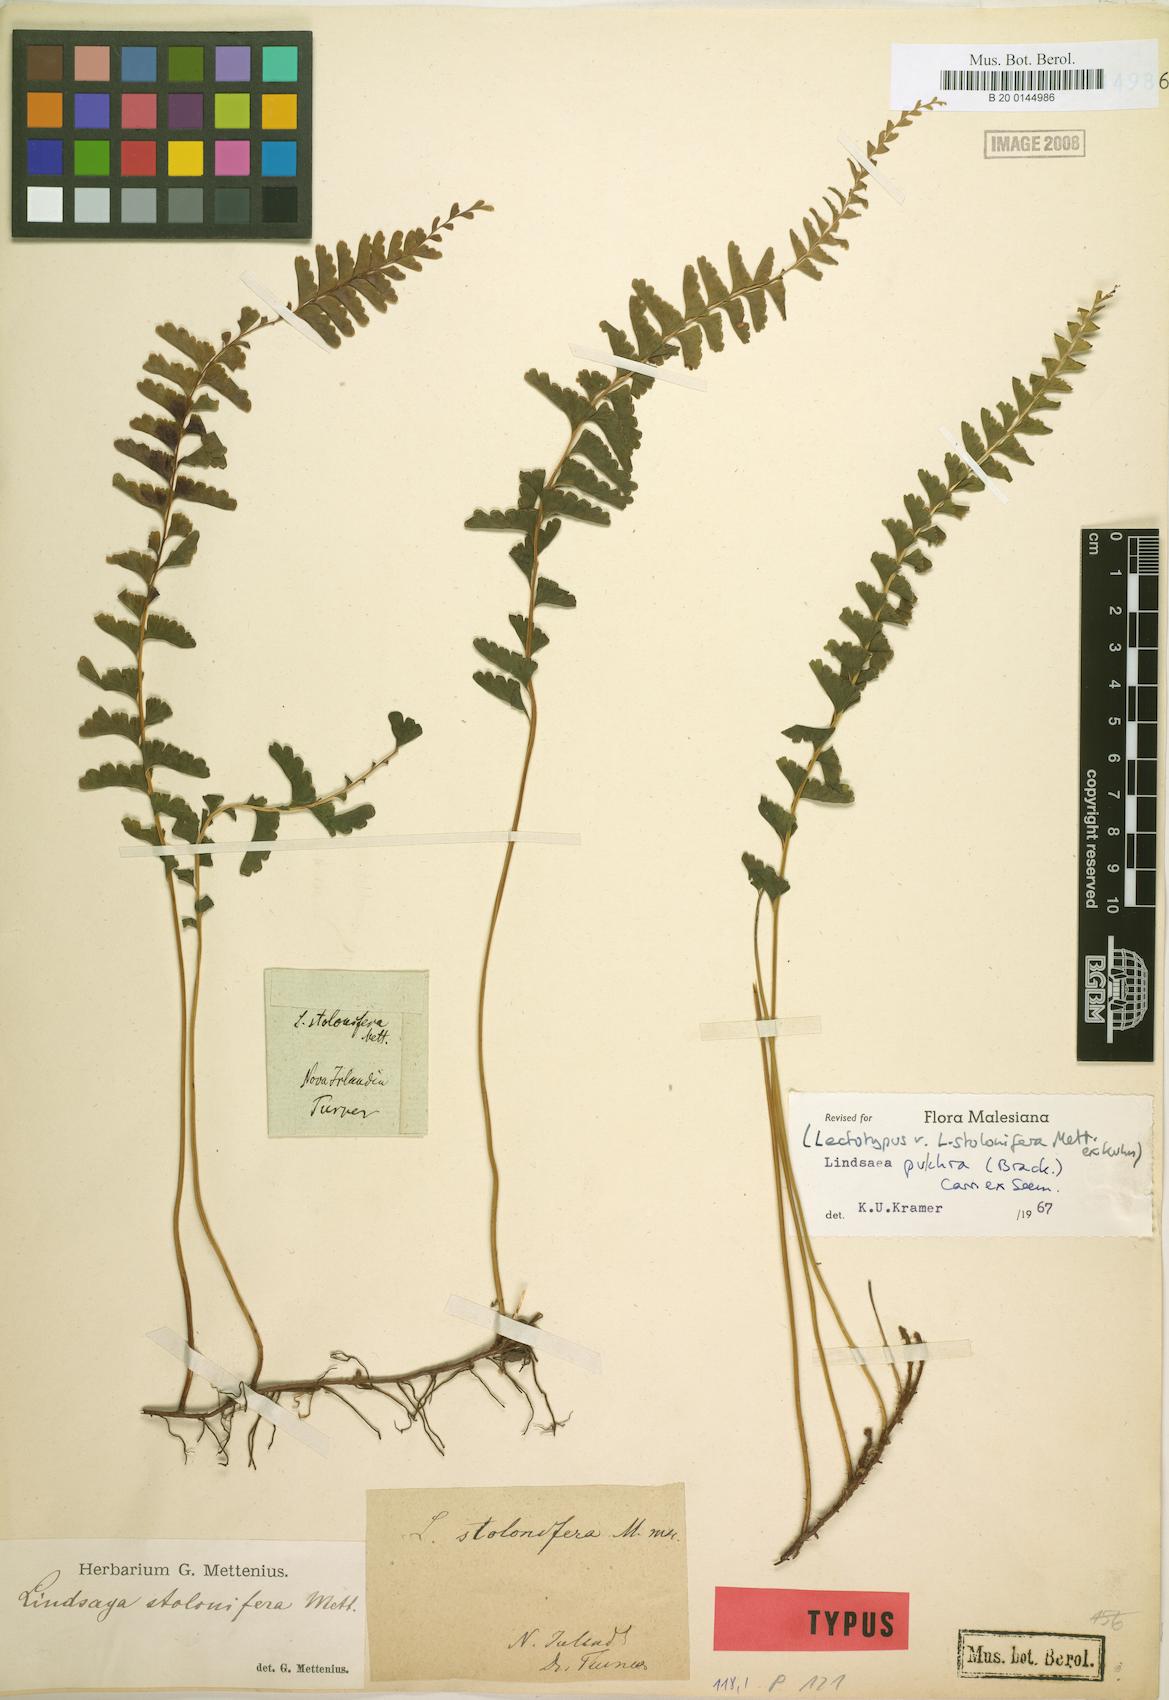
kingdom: Plantae
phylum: Tracheophyta
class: Polypodiopsida
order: Polypodiales
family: Lindsaeaceae
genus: Lindsaea
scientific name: Lindsaea pulchra
